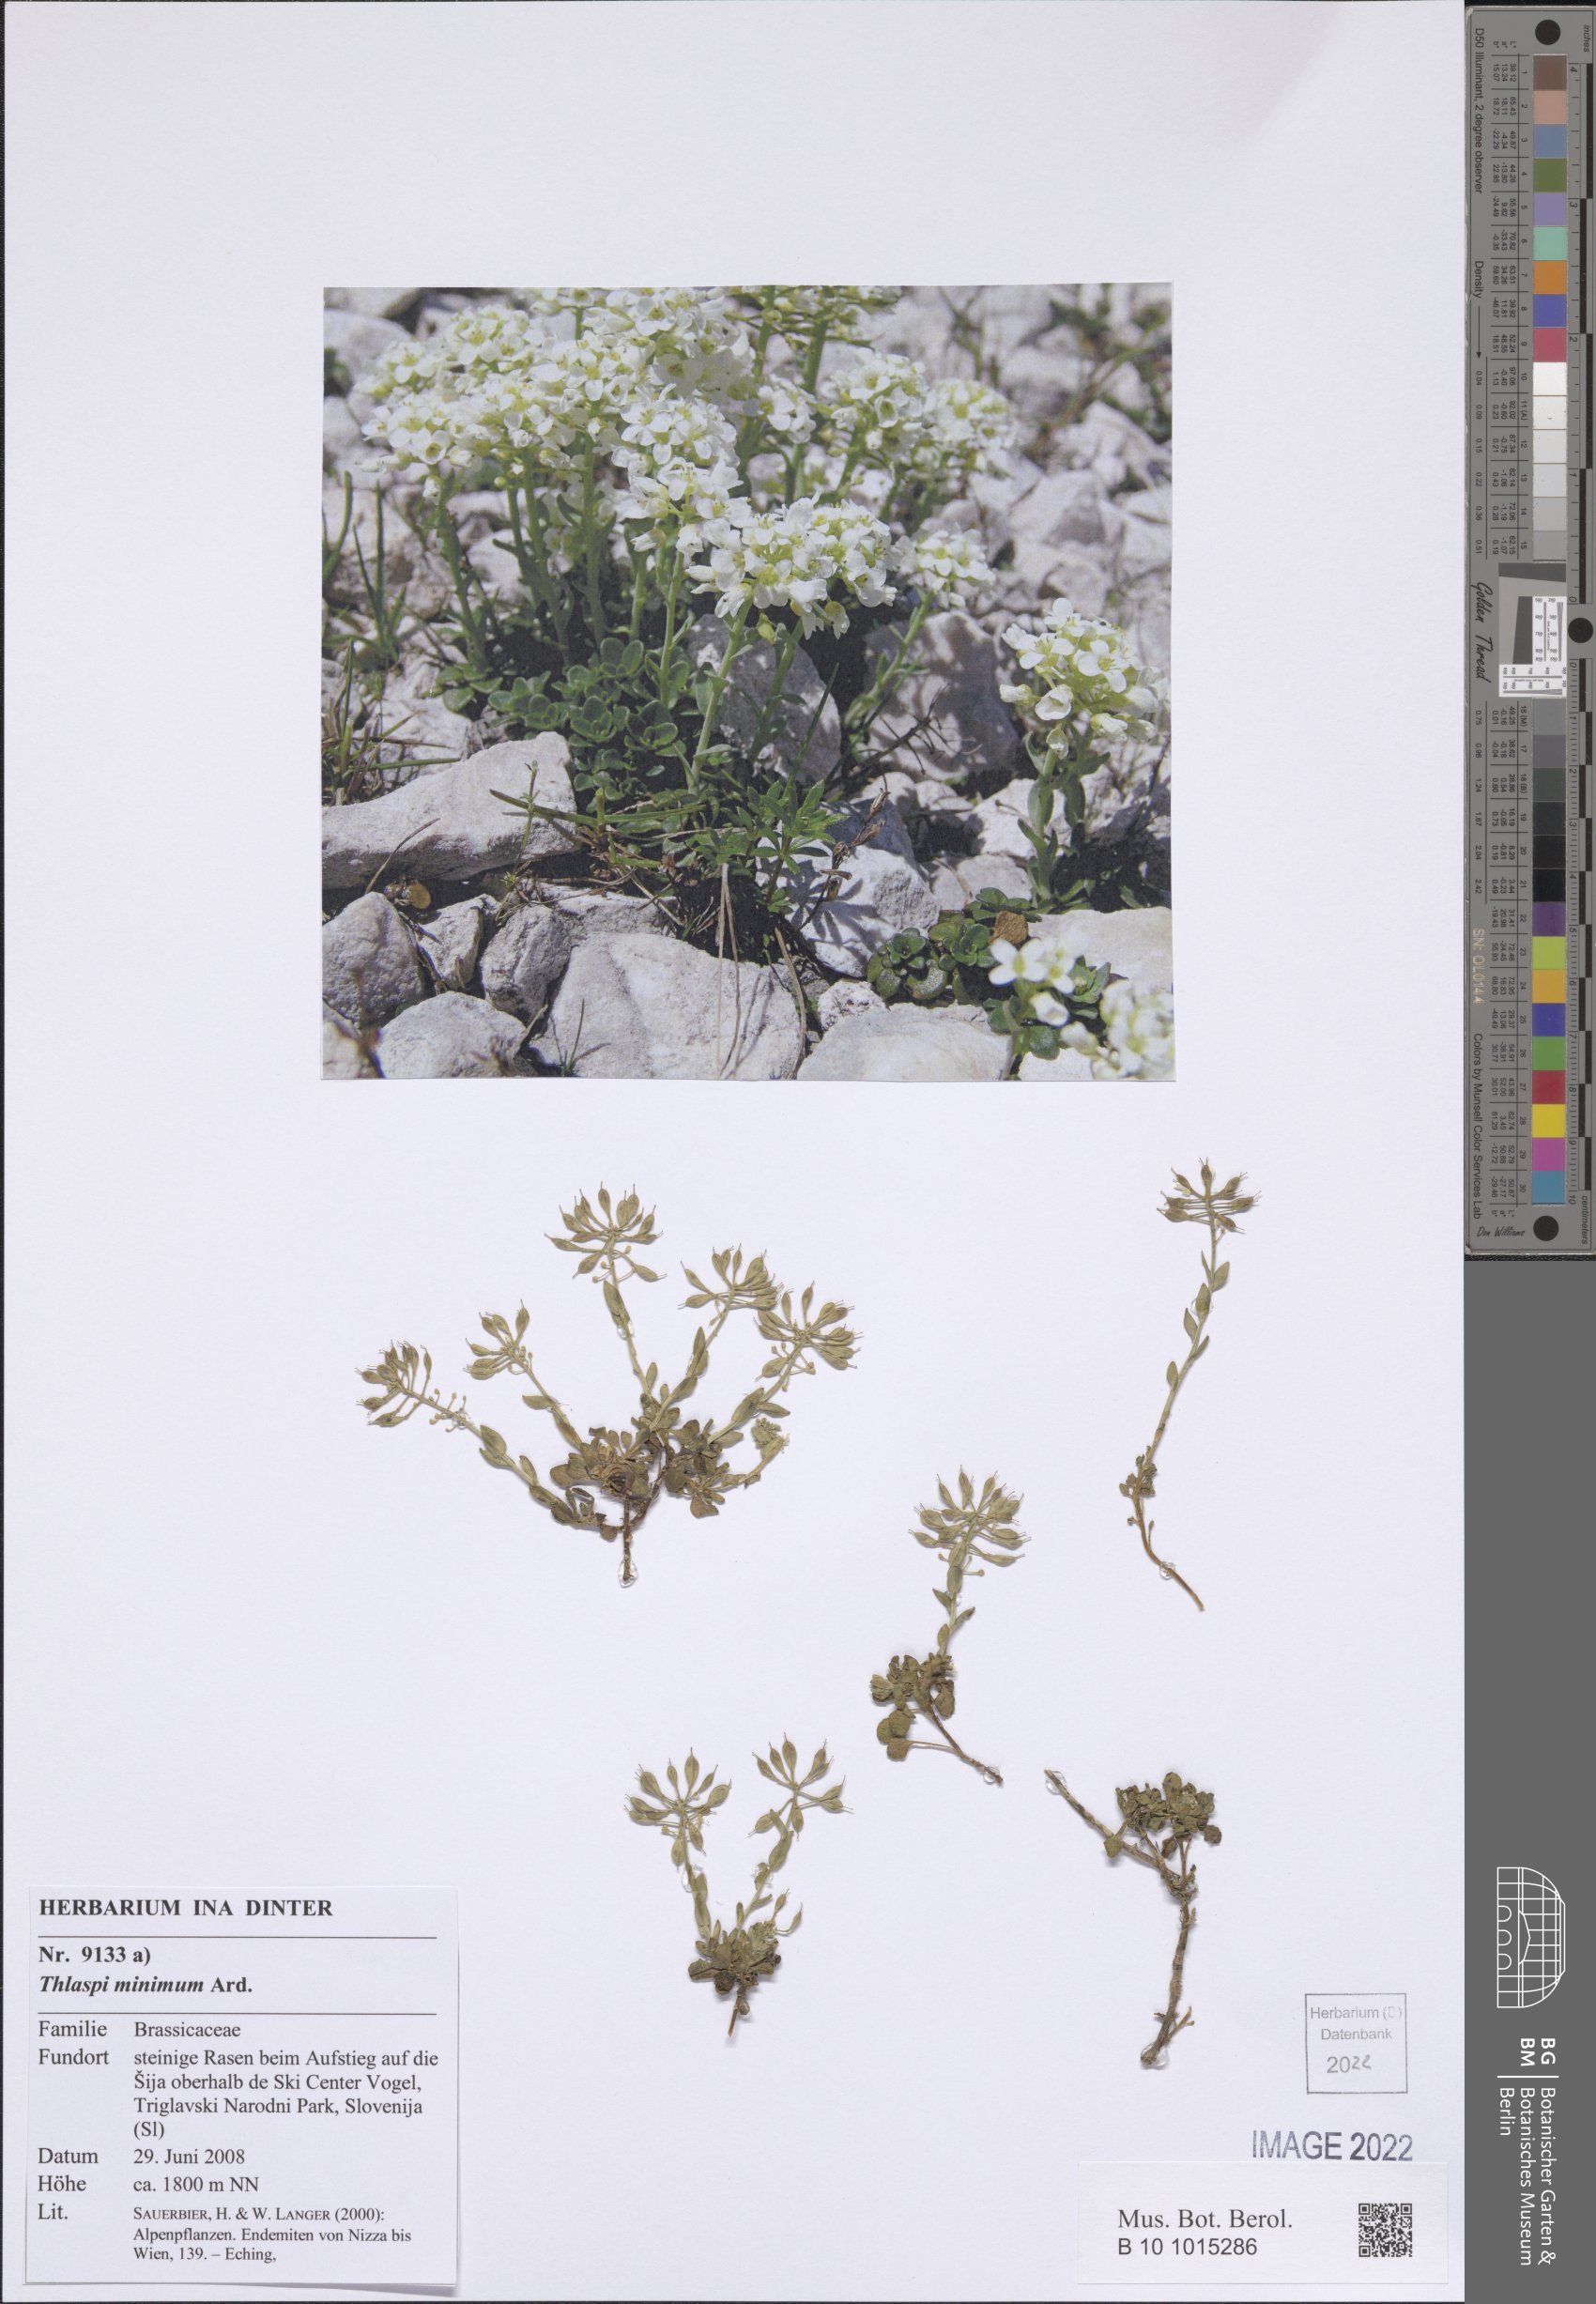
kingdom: Plantae
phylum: Tracheophyta
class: Magnoliopsida
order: Brassicales
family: Brassicaceae
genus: Noccaea
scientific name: Noccaea minima
